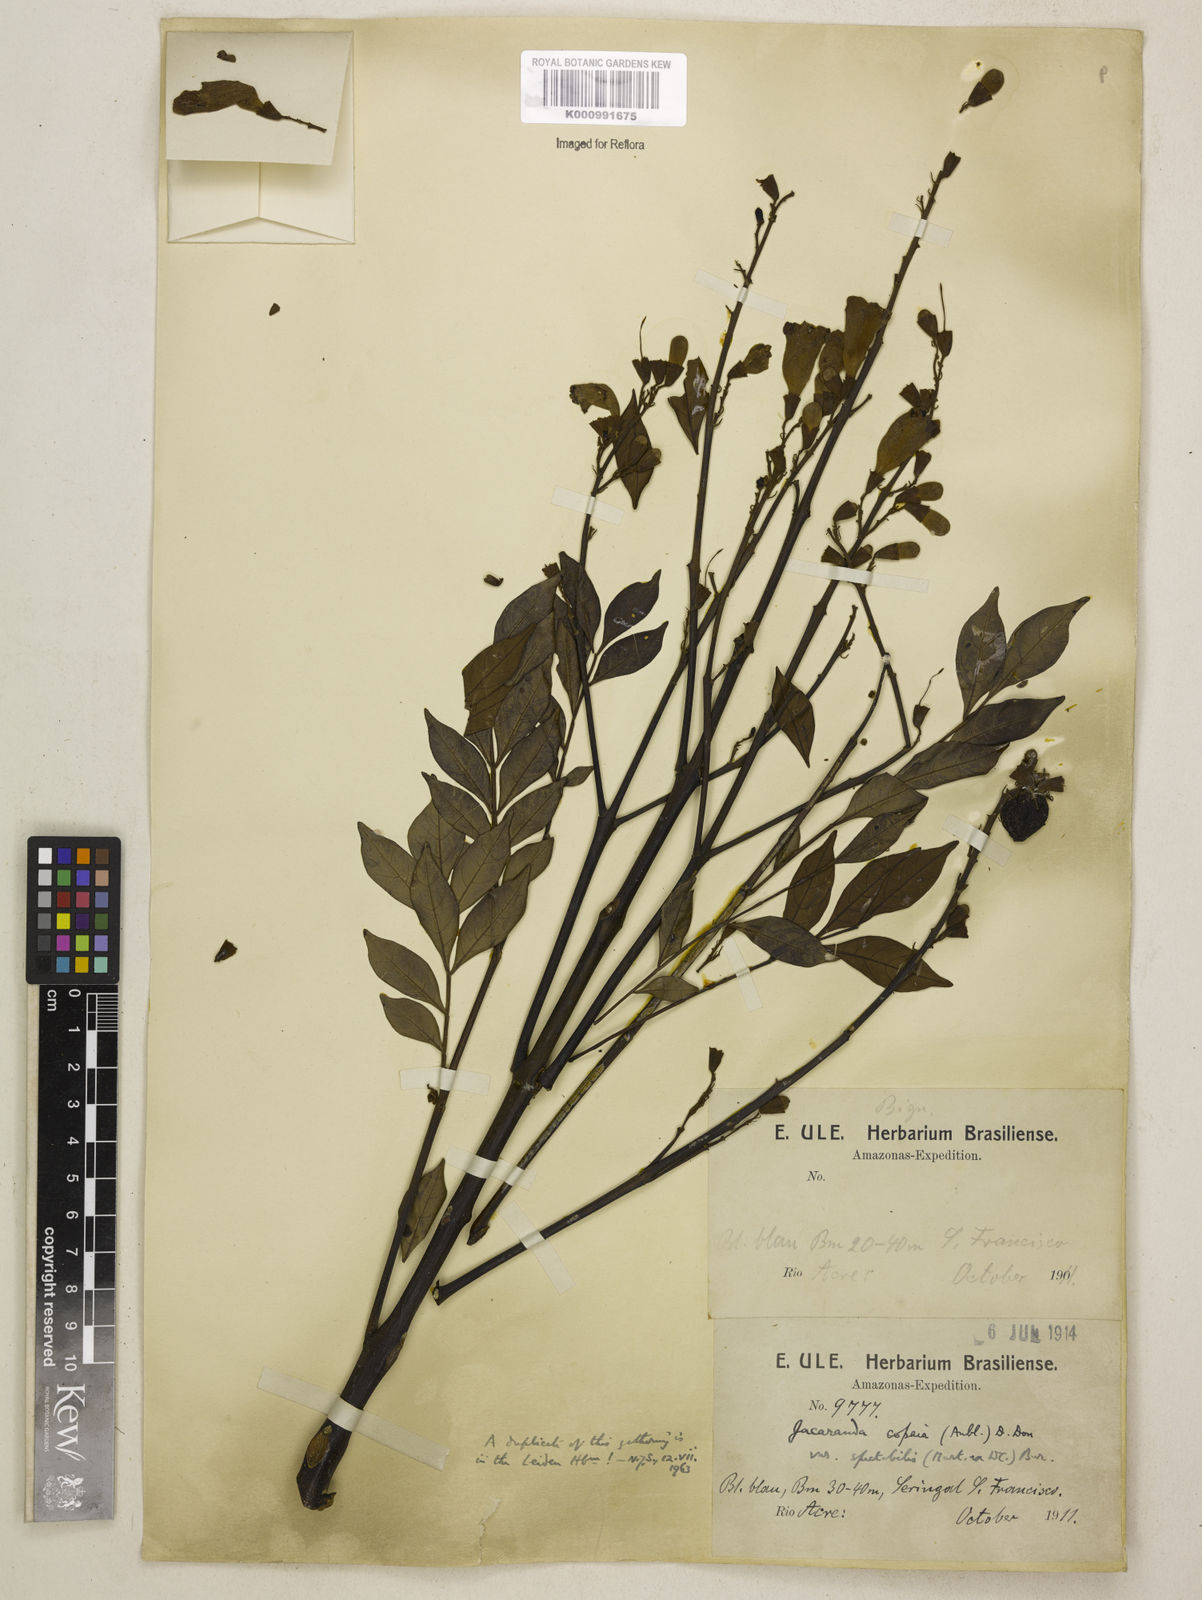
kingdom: Plantae
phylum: Tracheophyta
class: Magnoliopsida
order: Lamiales
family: Bignoniaceae
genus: Jacaranda
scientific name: Jacaranda copaia
